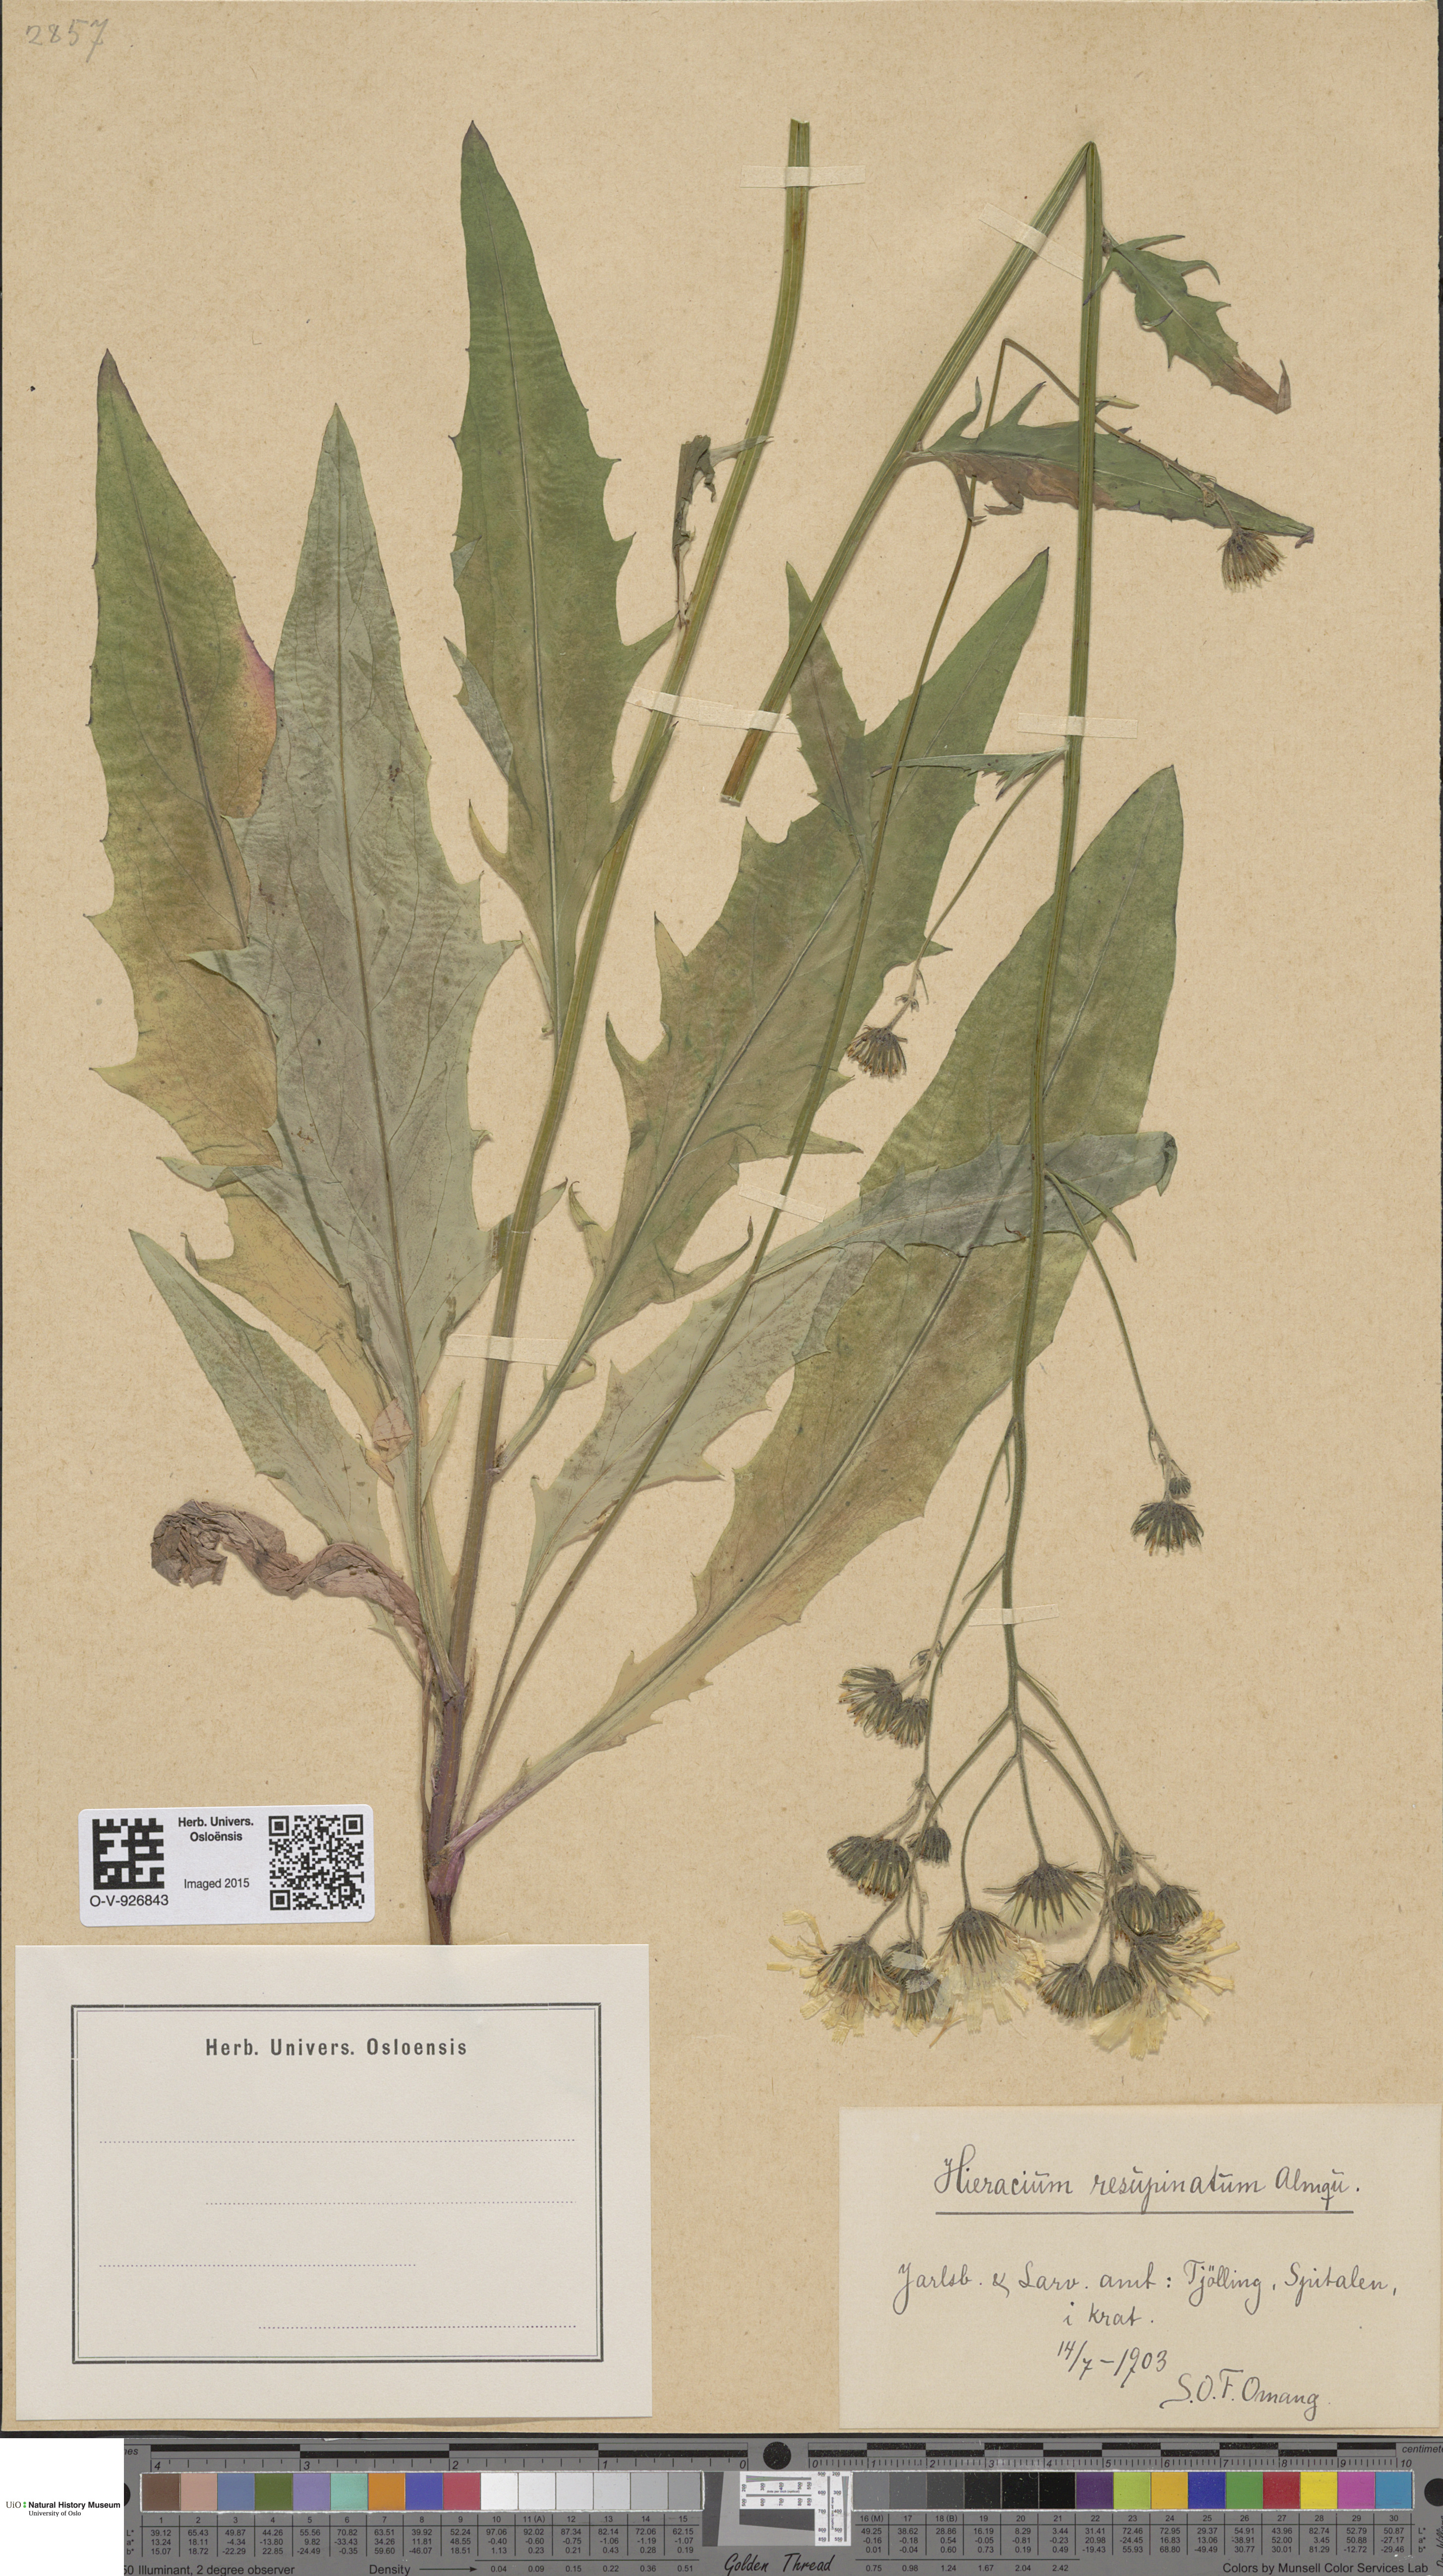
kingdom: Plantae
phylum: Tracheophyta
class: Magnoliopsida
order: Asterales
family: Asteraceae
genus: Hieracium
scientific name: Hieracium resupinatum
